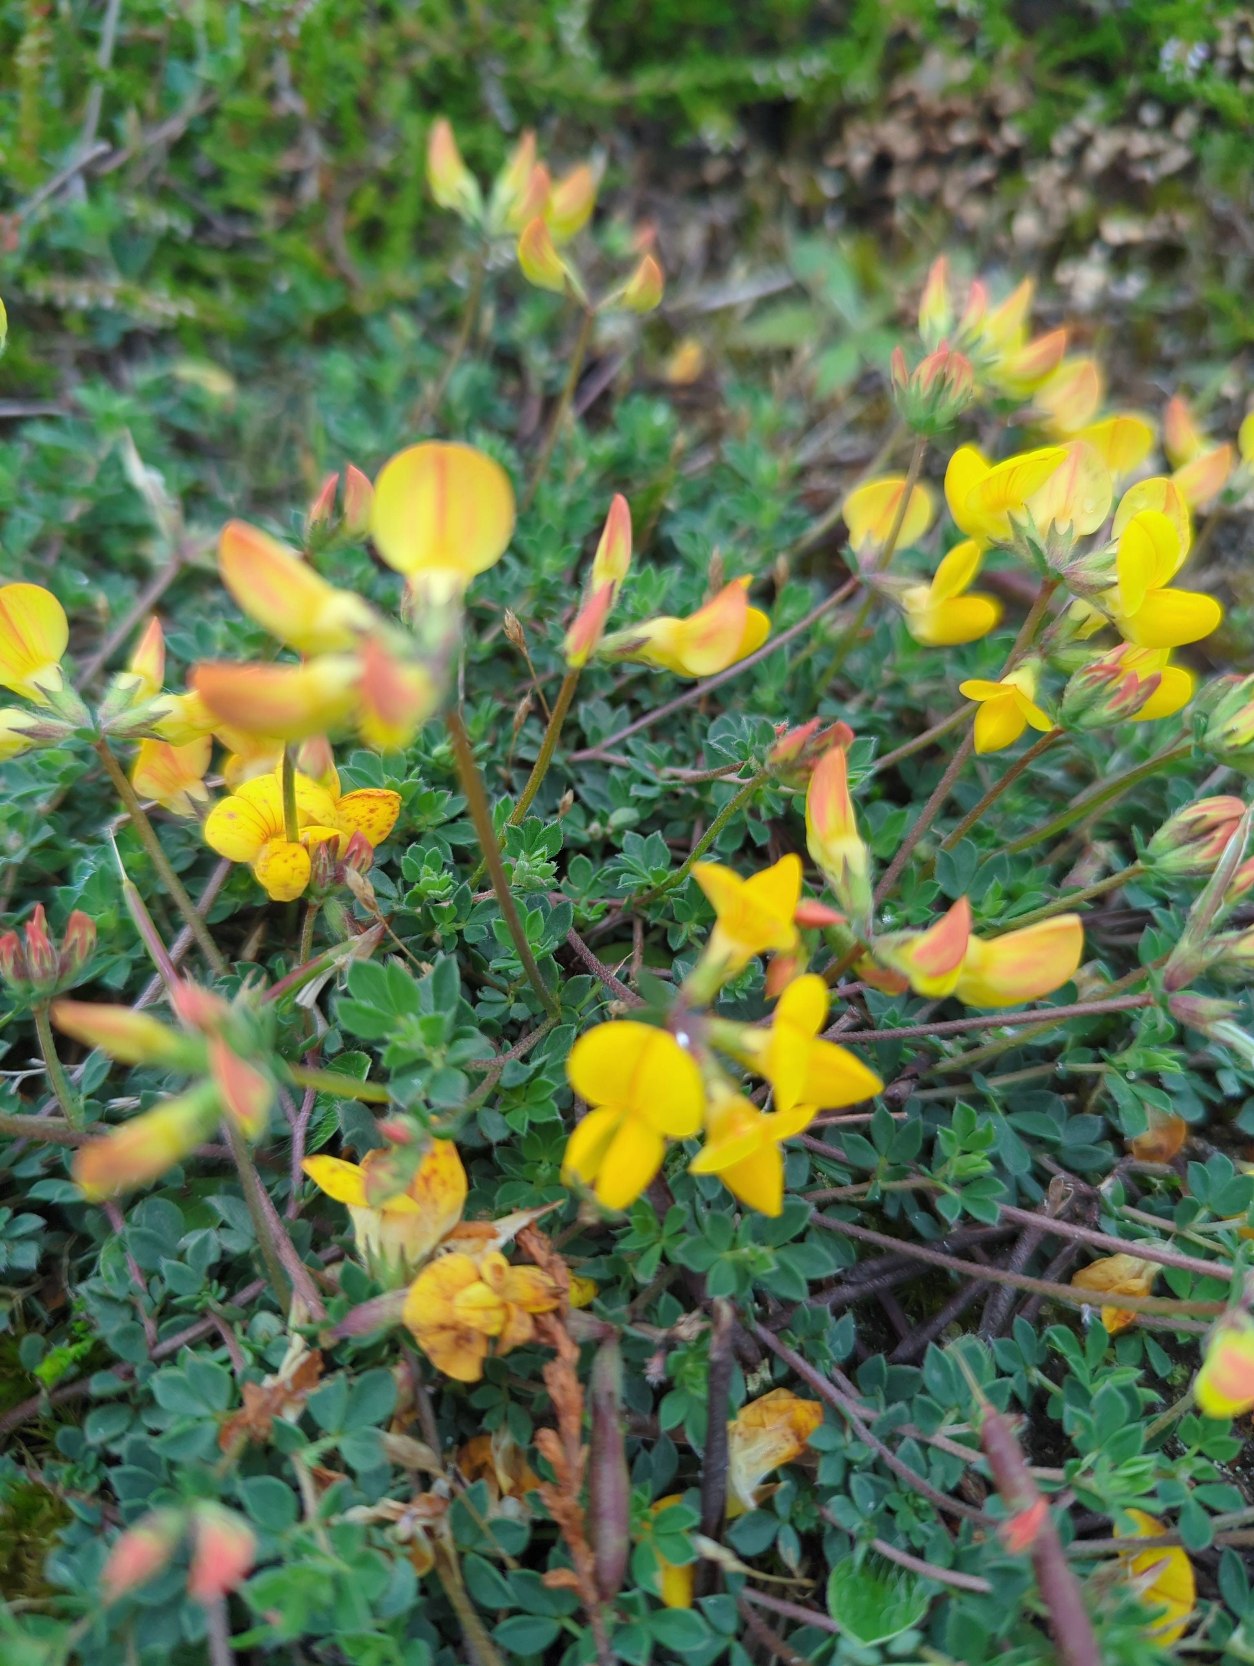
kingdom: Plantae
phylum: Tracheophyta
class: Magnoliopsida
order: Fabales
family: Fabaceae
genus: Lotus
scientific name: Lotus corniculatus
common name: Almindelig kællingetand
